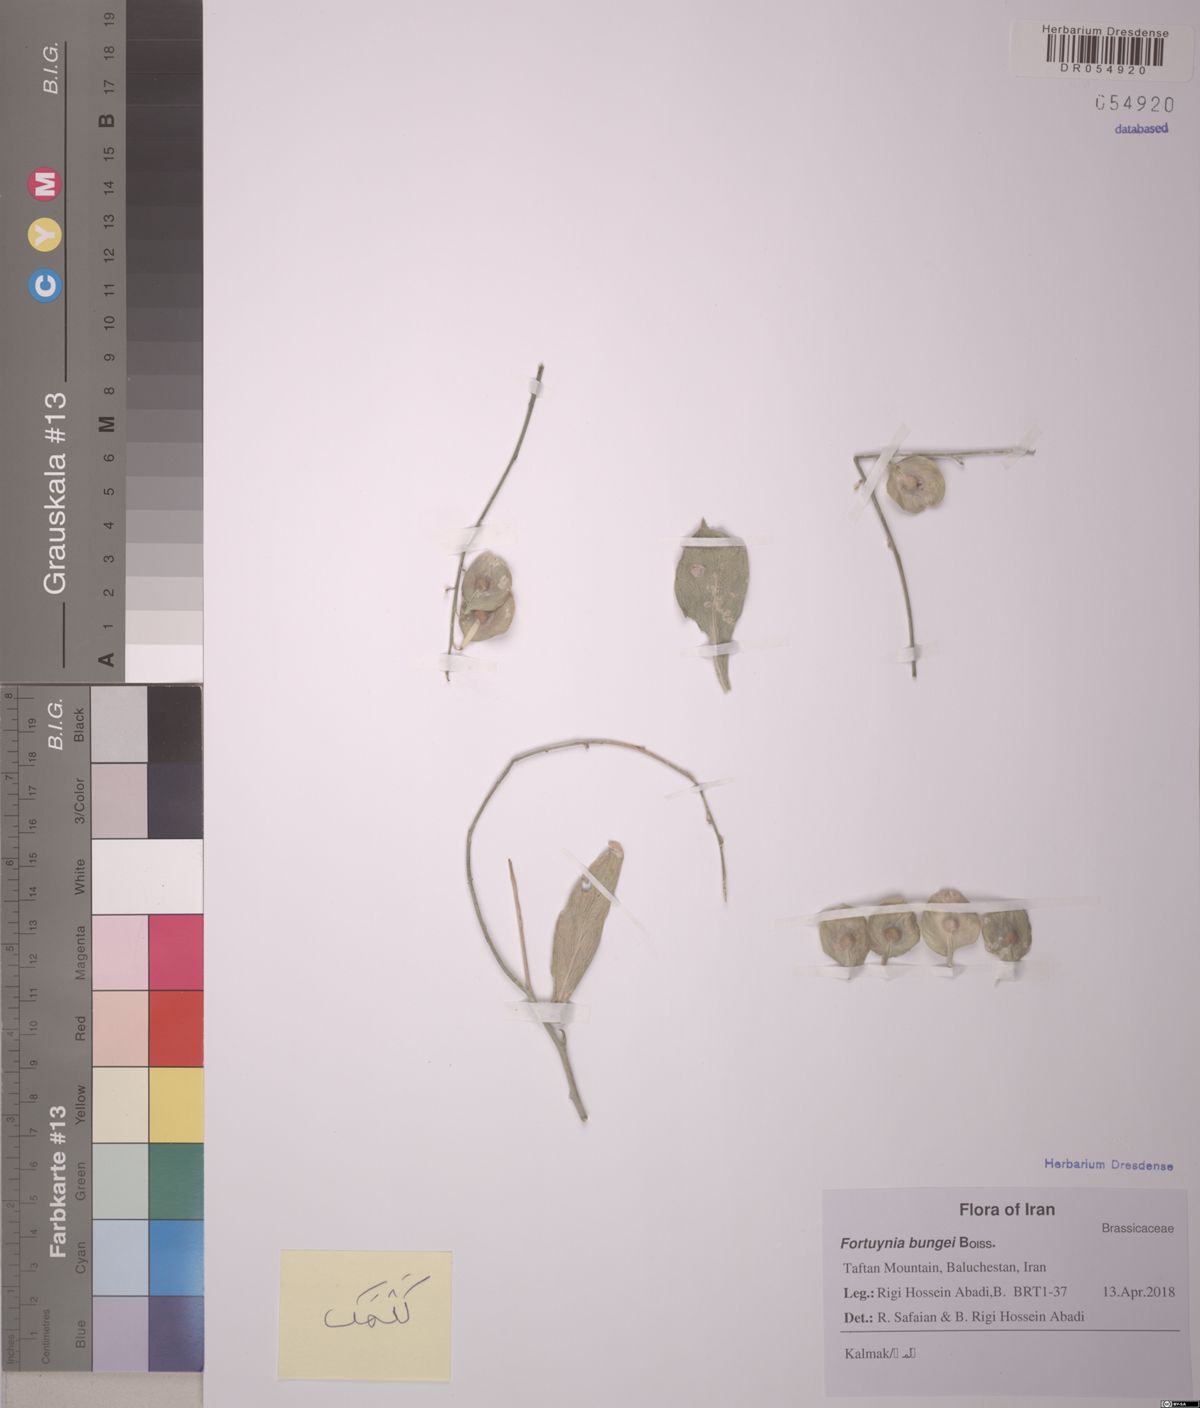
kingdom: Plantae
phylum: Tracheophyta
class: Magnoliopsida
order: Brassicales
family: Brassicaceae
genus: Fortuynia
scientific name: Fortuynia garcinii
